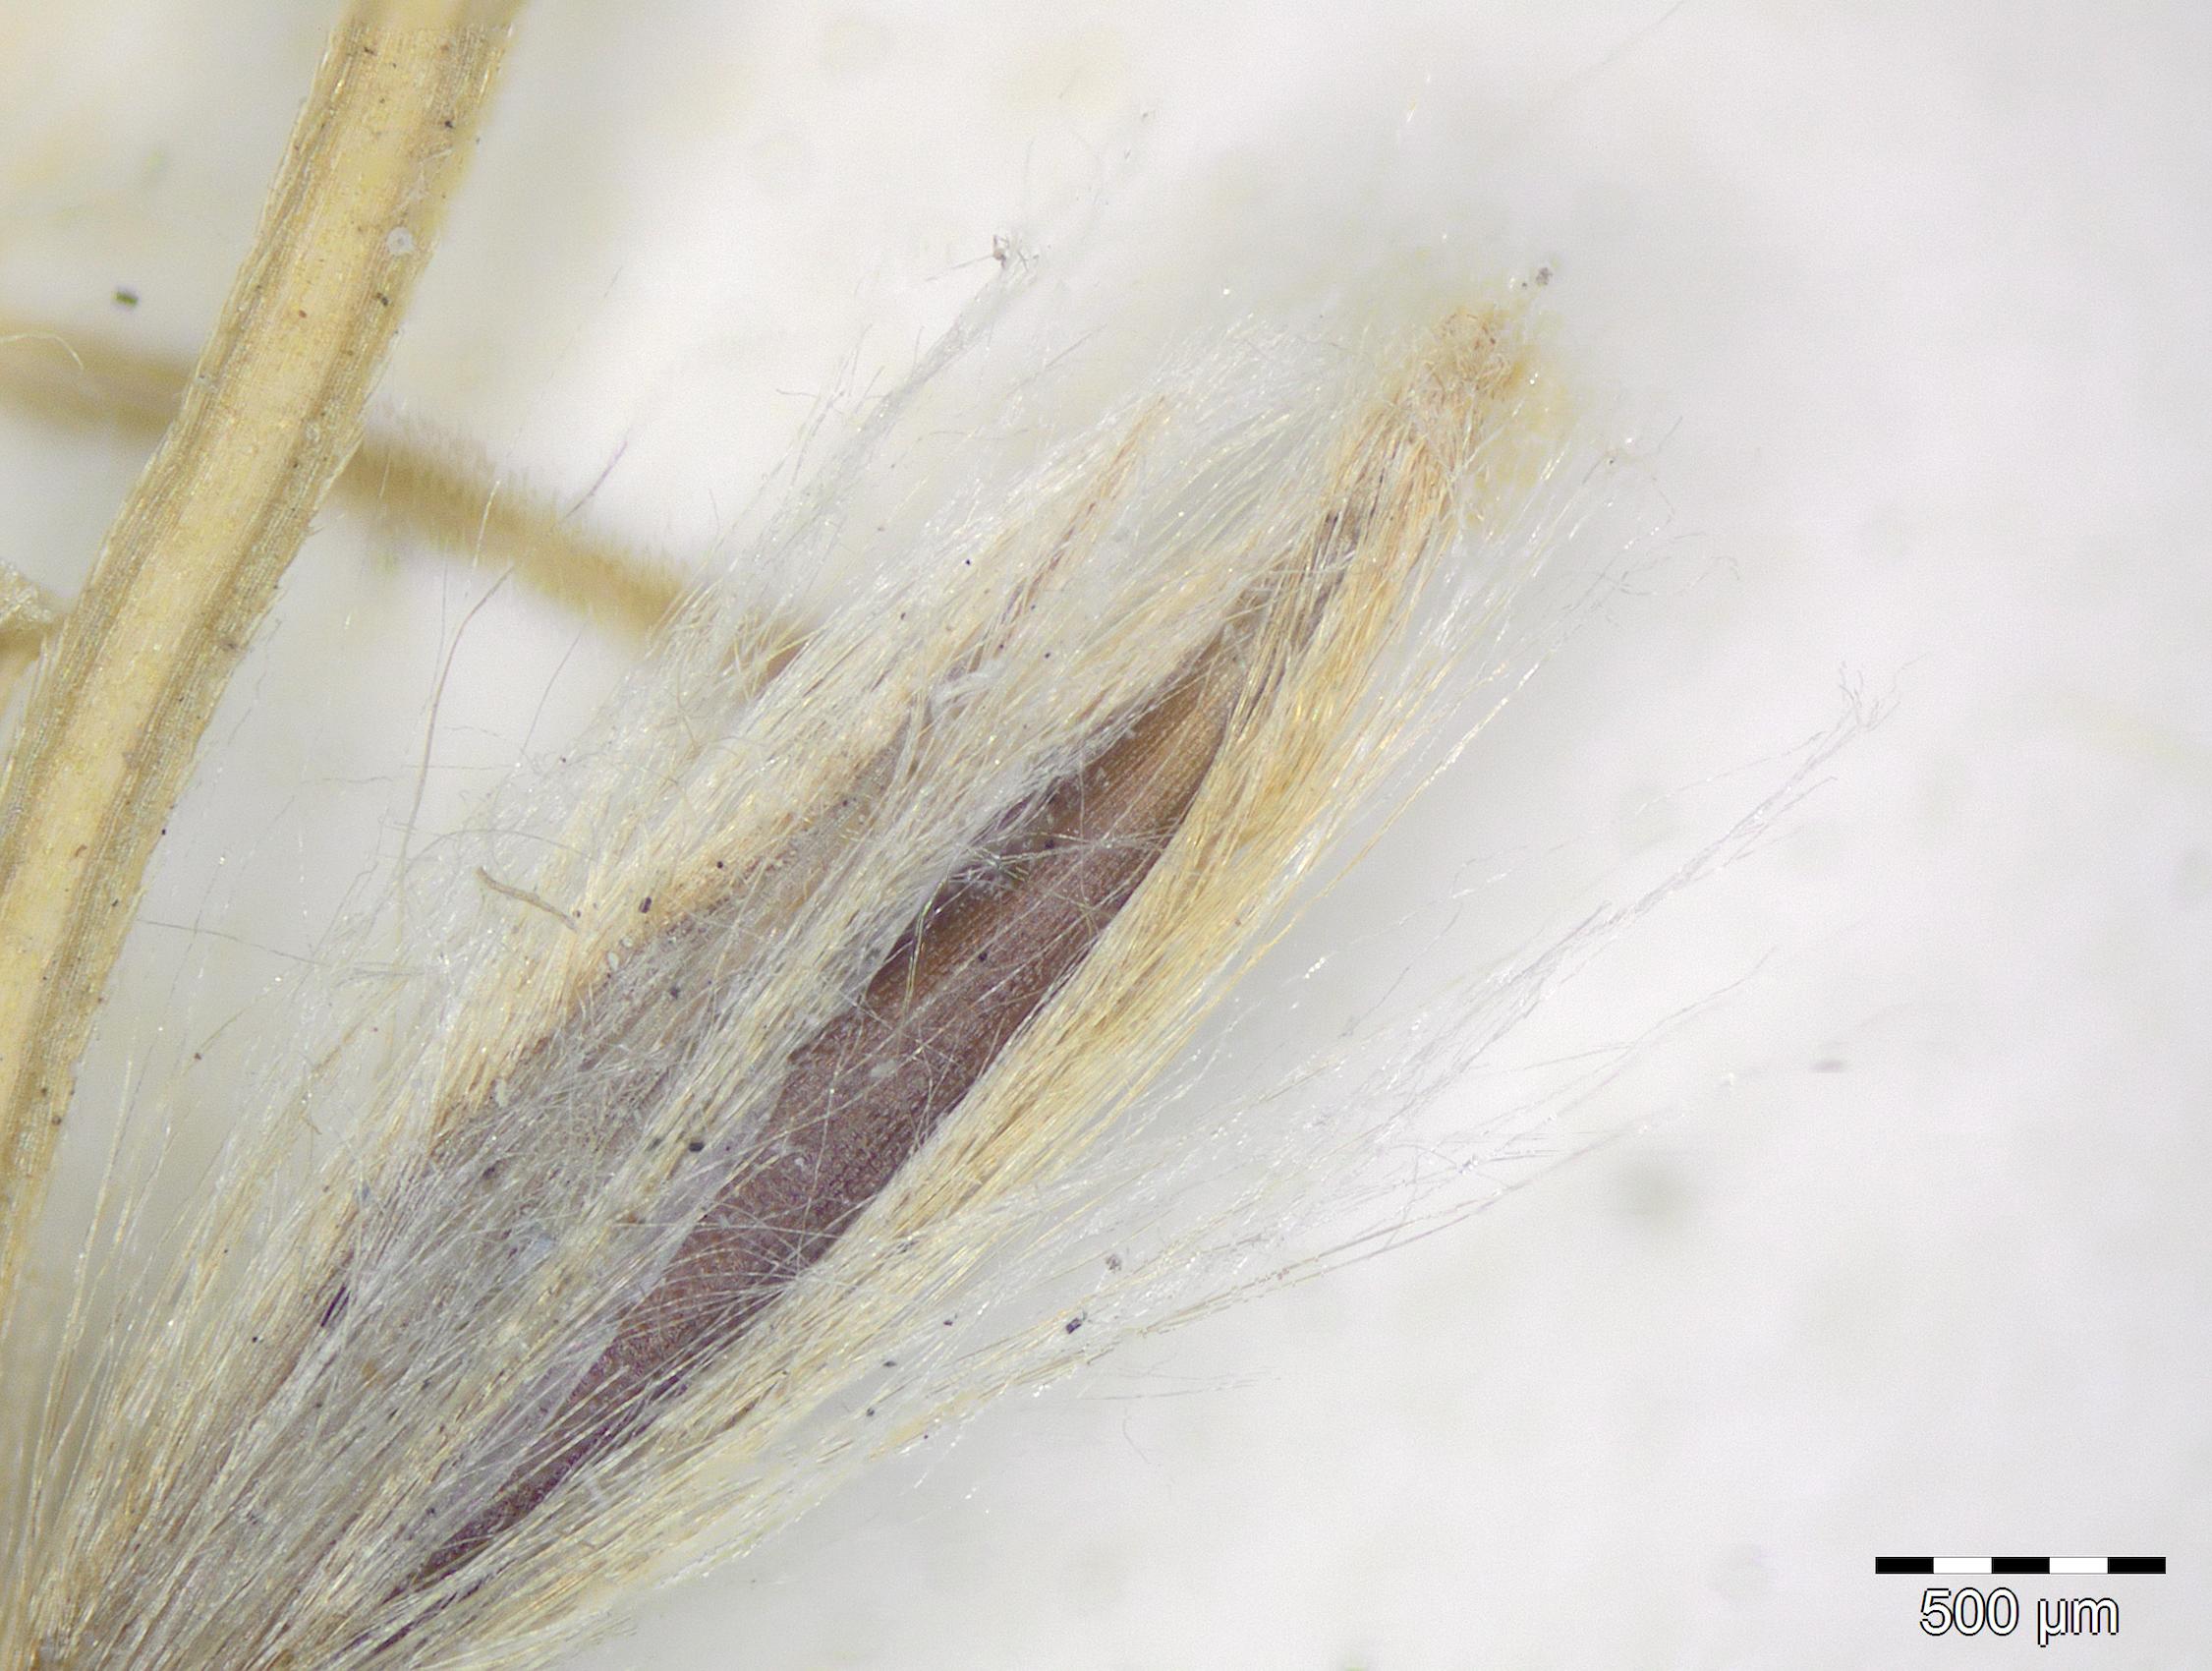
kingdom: Plantae
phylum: Tracheophyta
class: Liliopsida
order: Poales
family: Poaceae
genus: Digitaria
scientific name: Digitaria sellowii
